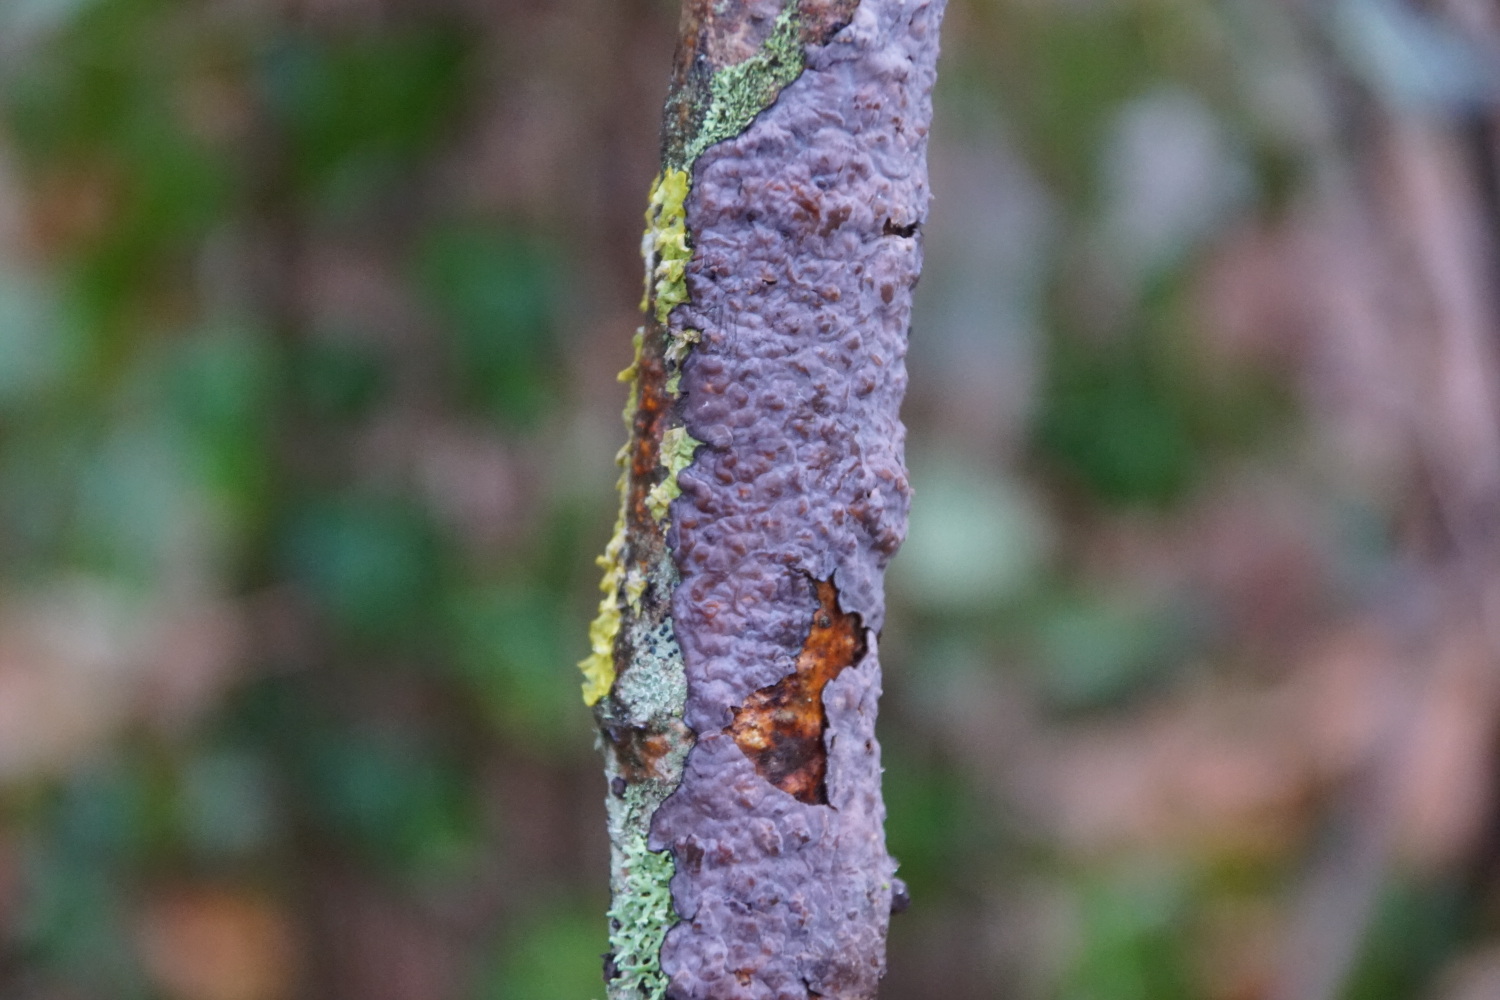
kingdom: Fungi
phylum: Basidiomycota
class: Agaricomycetes
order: Russulales
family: Peniophoraceae
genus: Peniophora
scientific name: Peniophora quercina
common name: ege-voksskind
